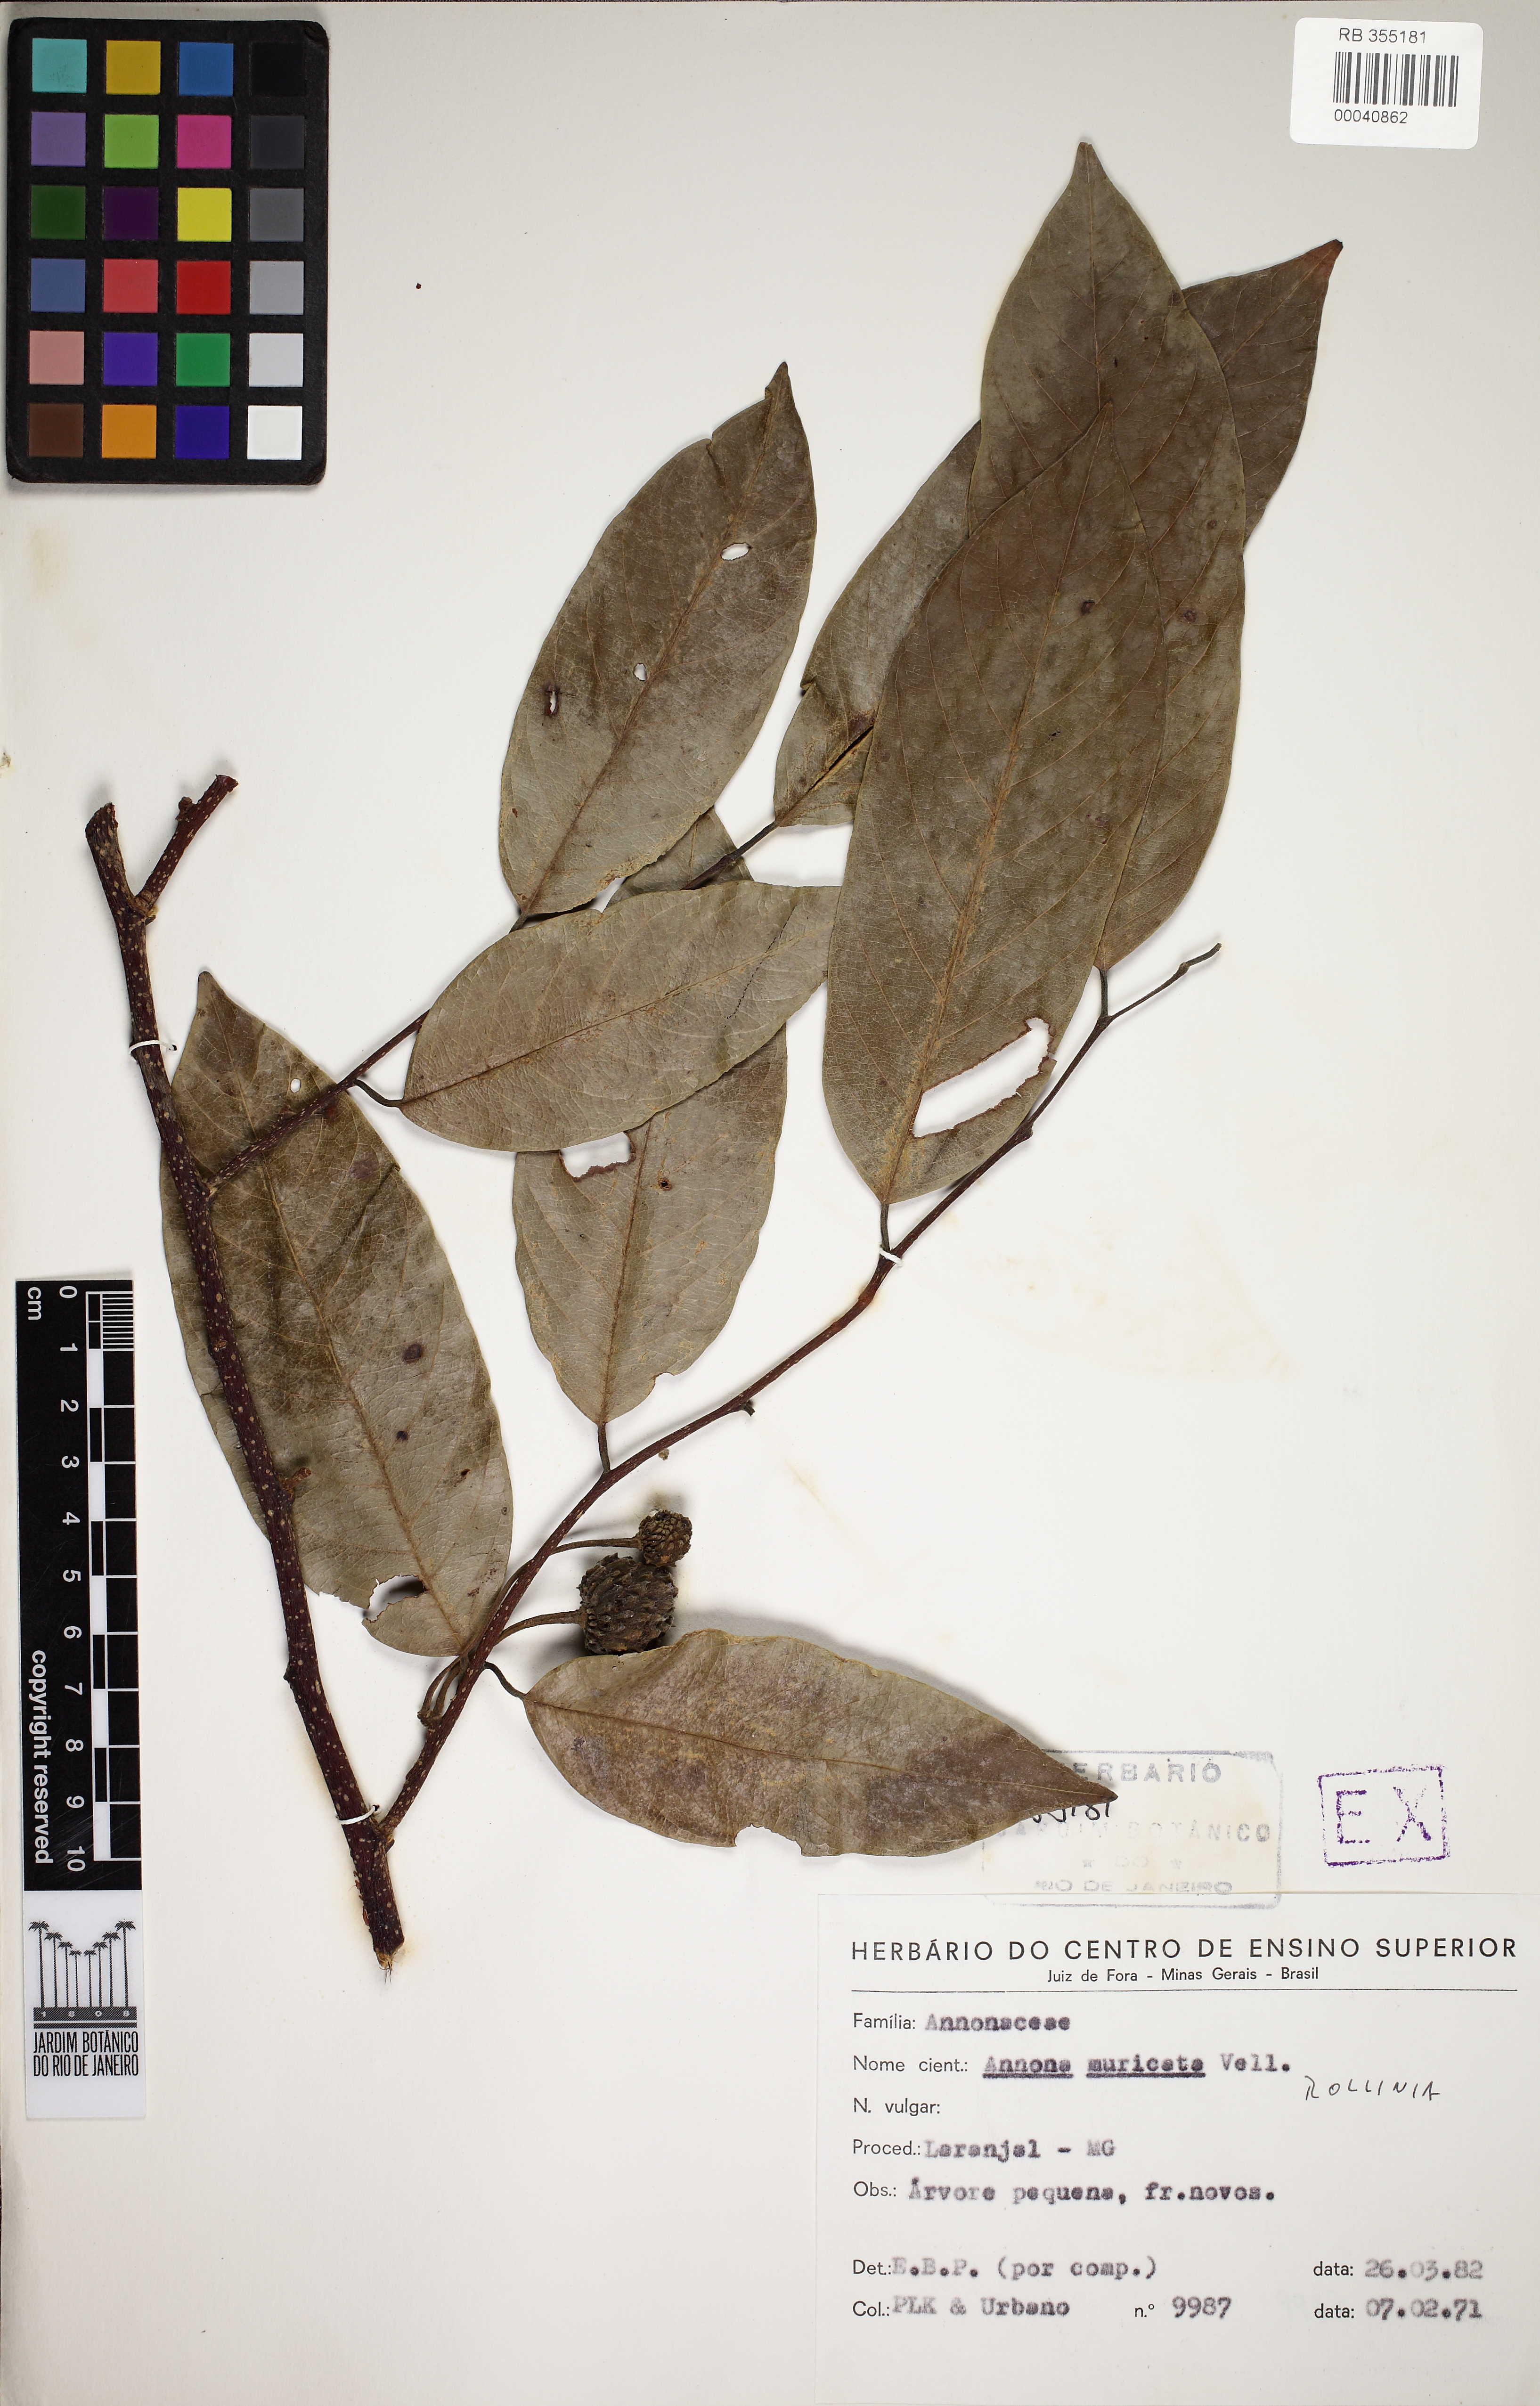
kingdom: Plantae
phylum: Tracheophyta
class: Magnoliopsida
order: Magnoliales
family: Annonaceae
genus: Annona
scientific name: Annona
